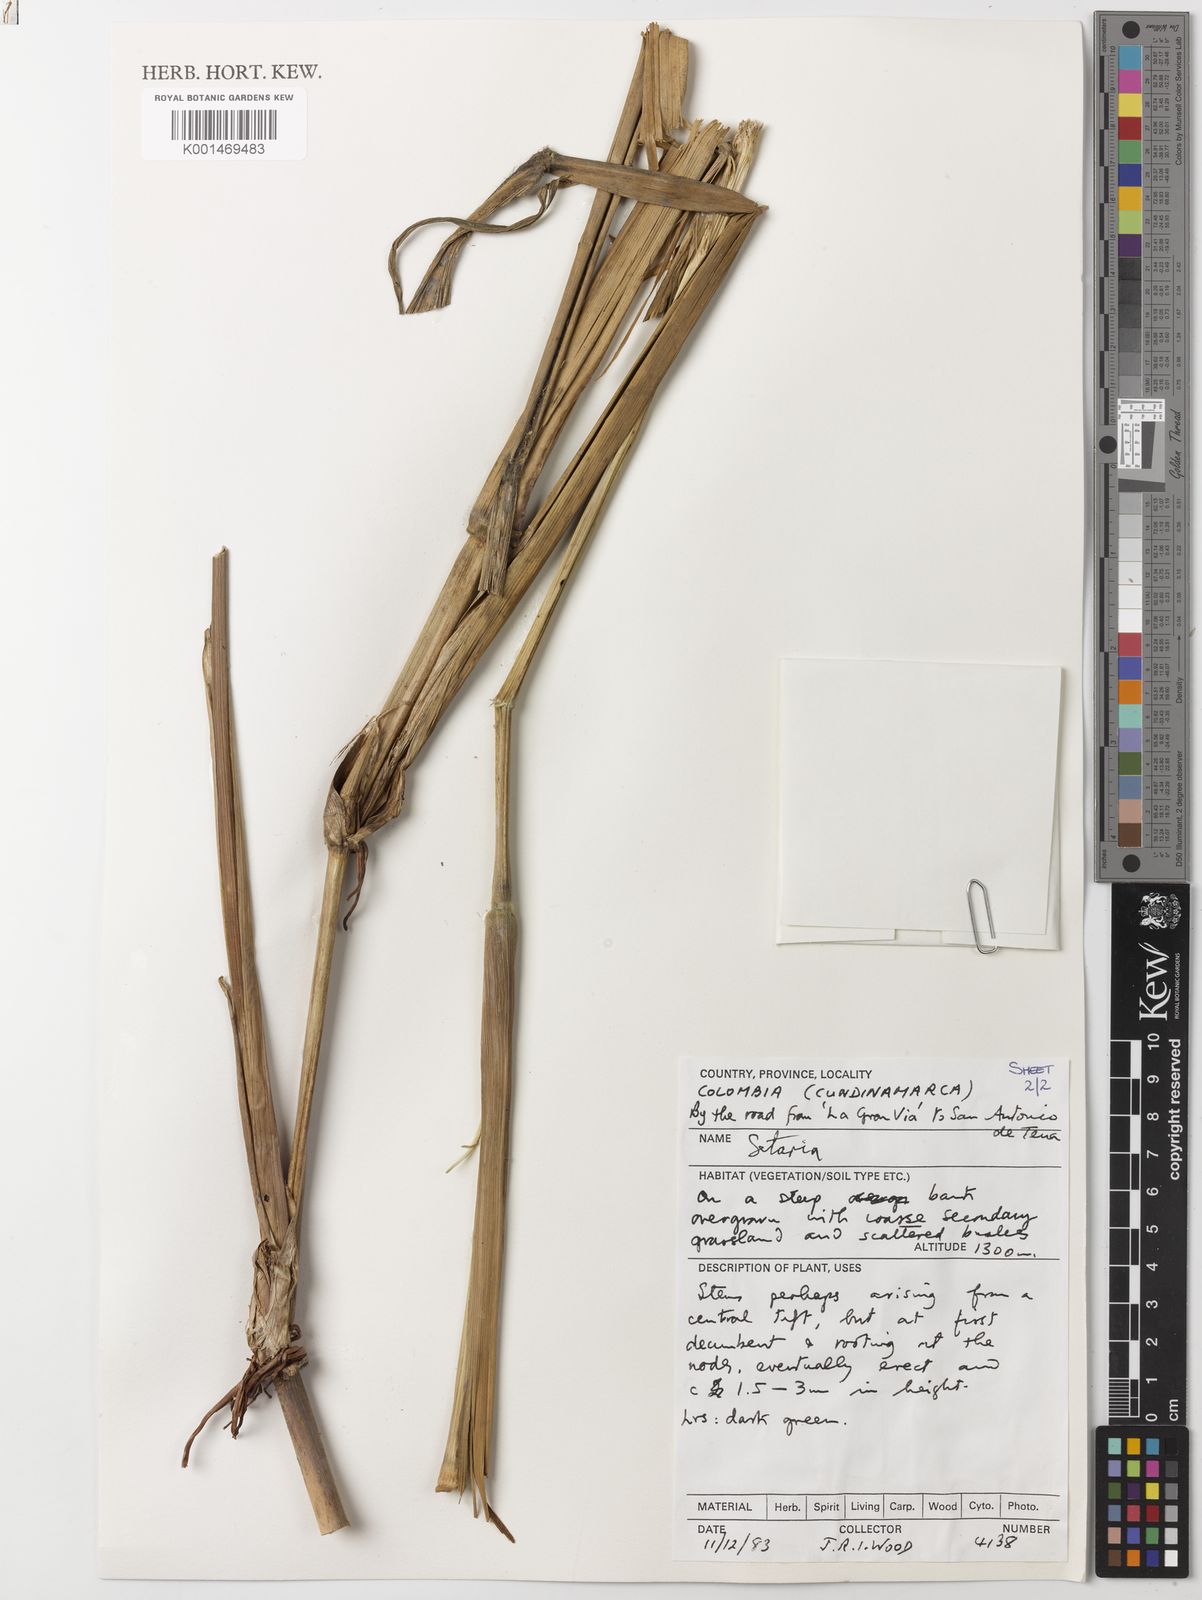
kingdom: Plantae
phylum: Tracheophyta
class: Liliopsida
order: Poales
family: Poaceae
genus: Setaria
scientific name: Setaria palmifolia
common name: Broadleaved bristlegrass
